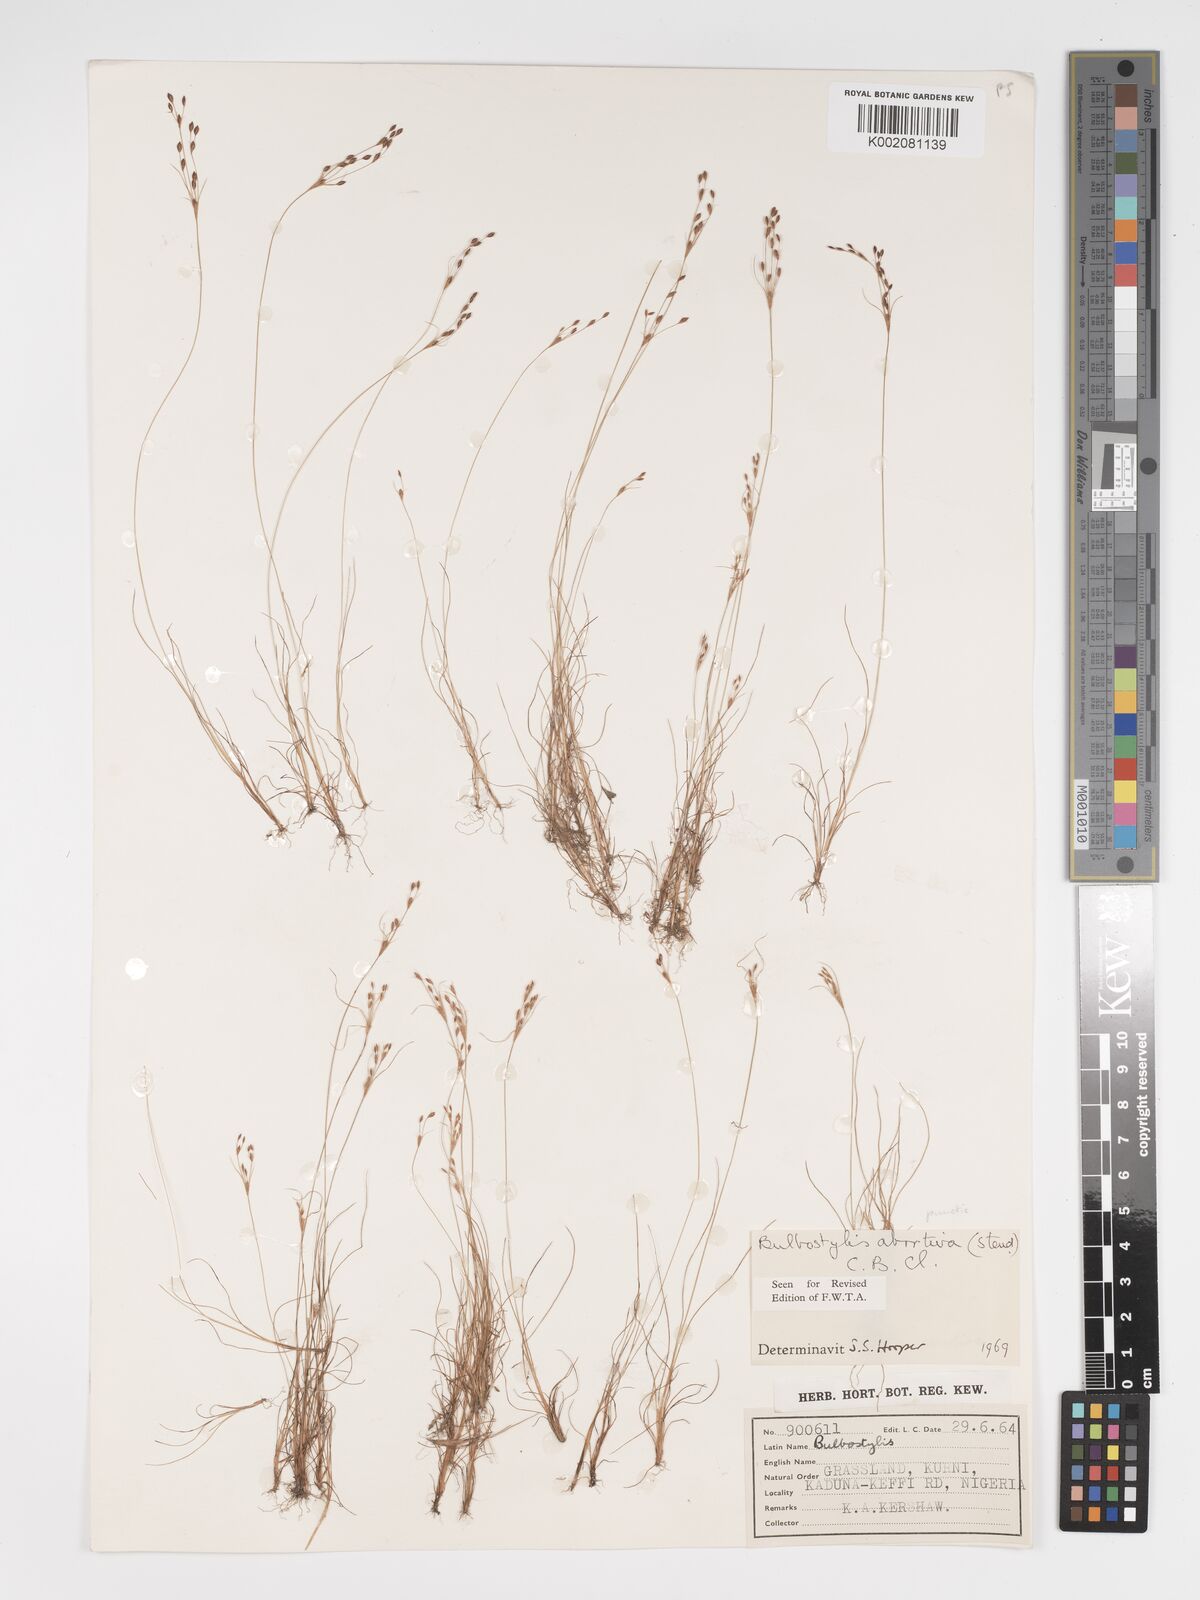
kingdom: Plantae
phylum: Tracheophyta
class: Liliopsida
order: Poales
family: Cyperaceae
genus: Bulbostylis
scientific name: Bulbostylis abortiva
